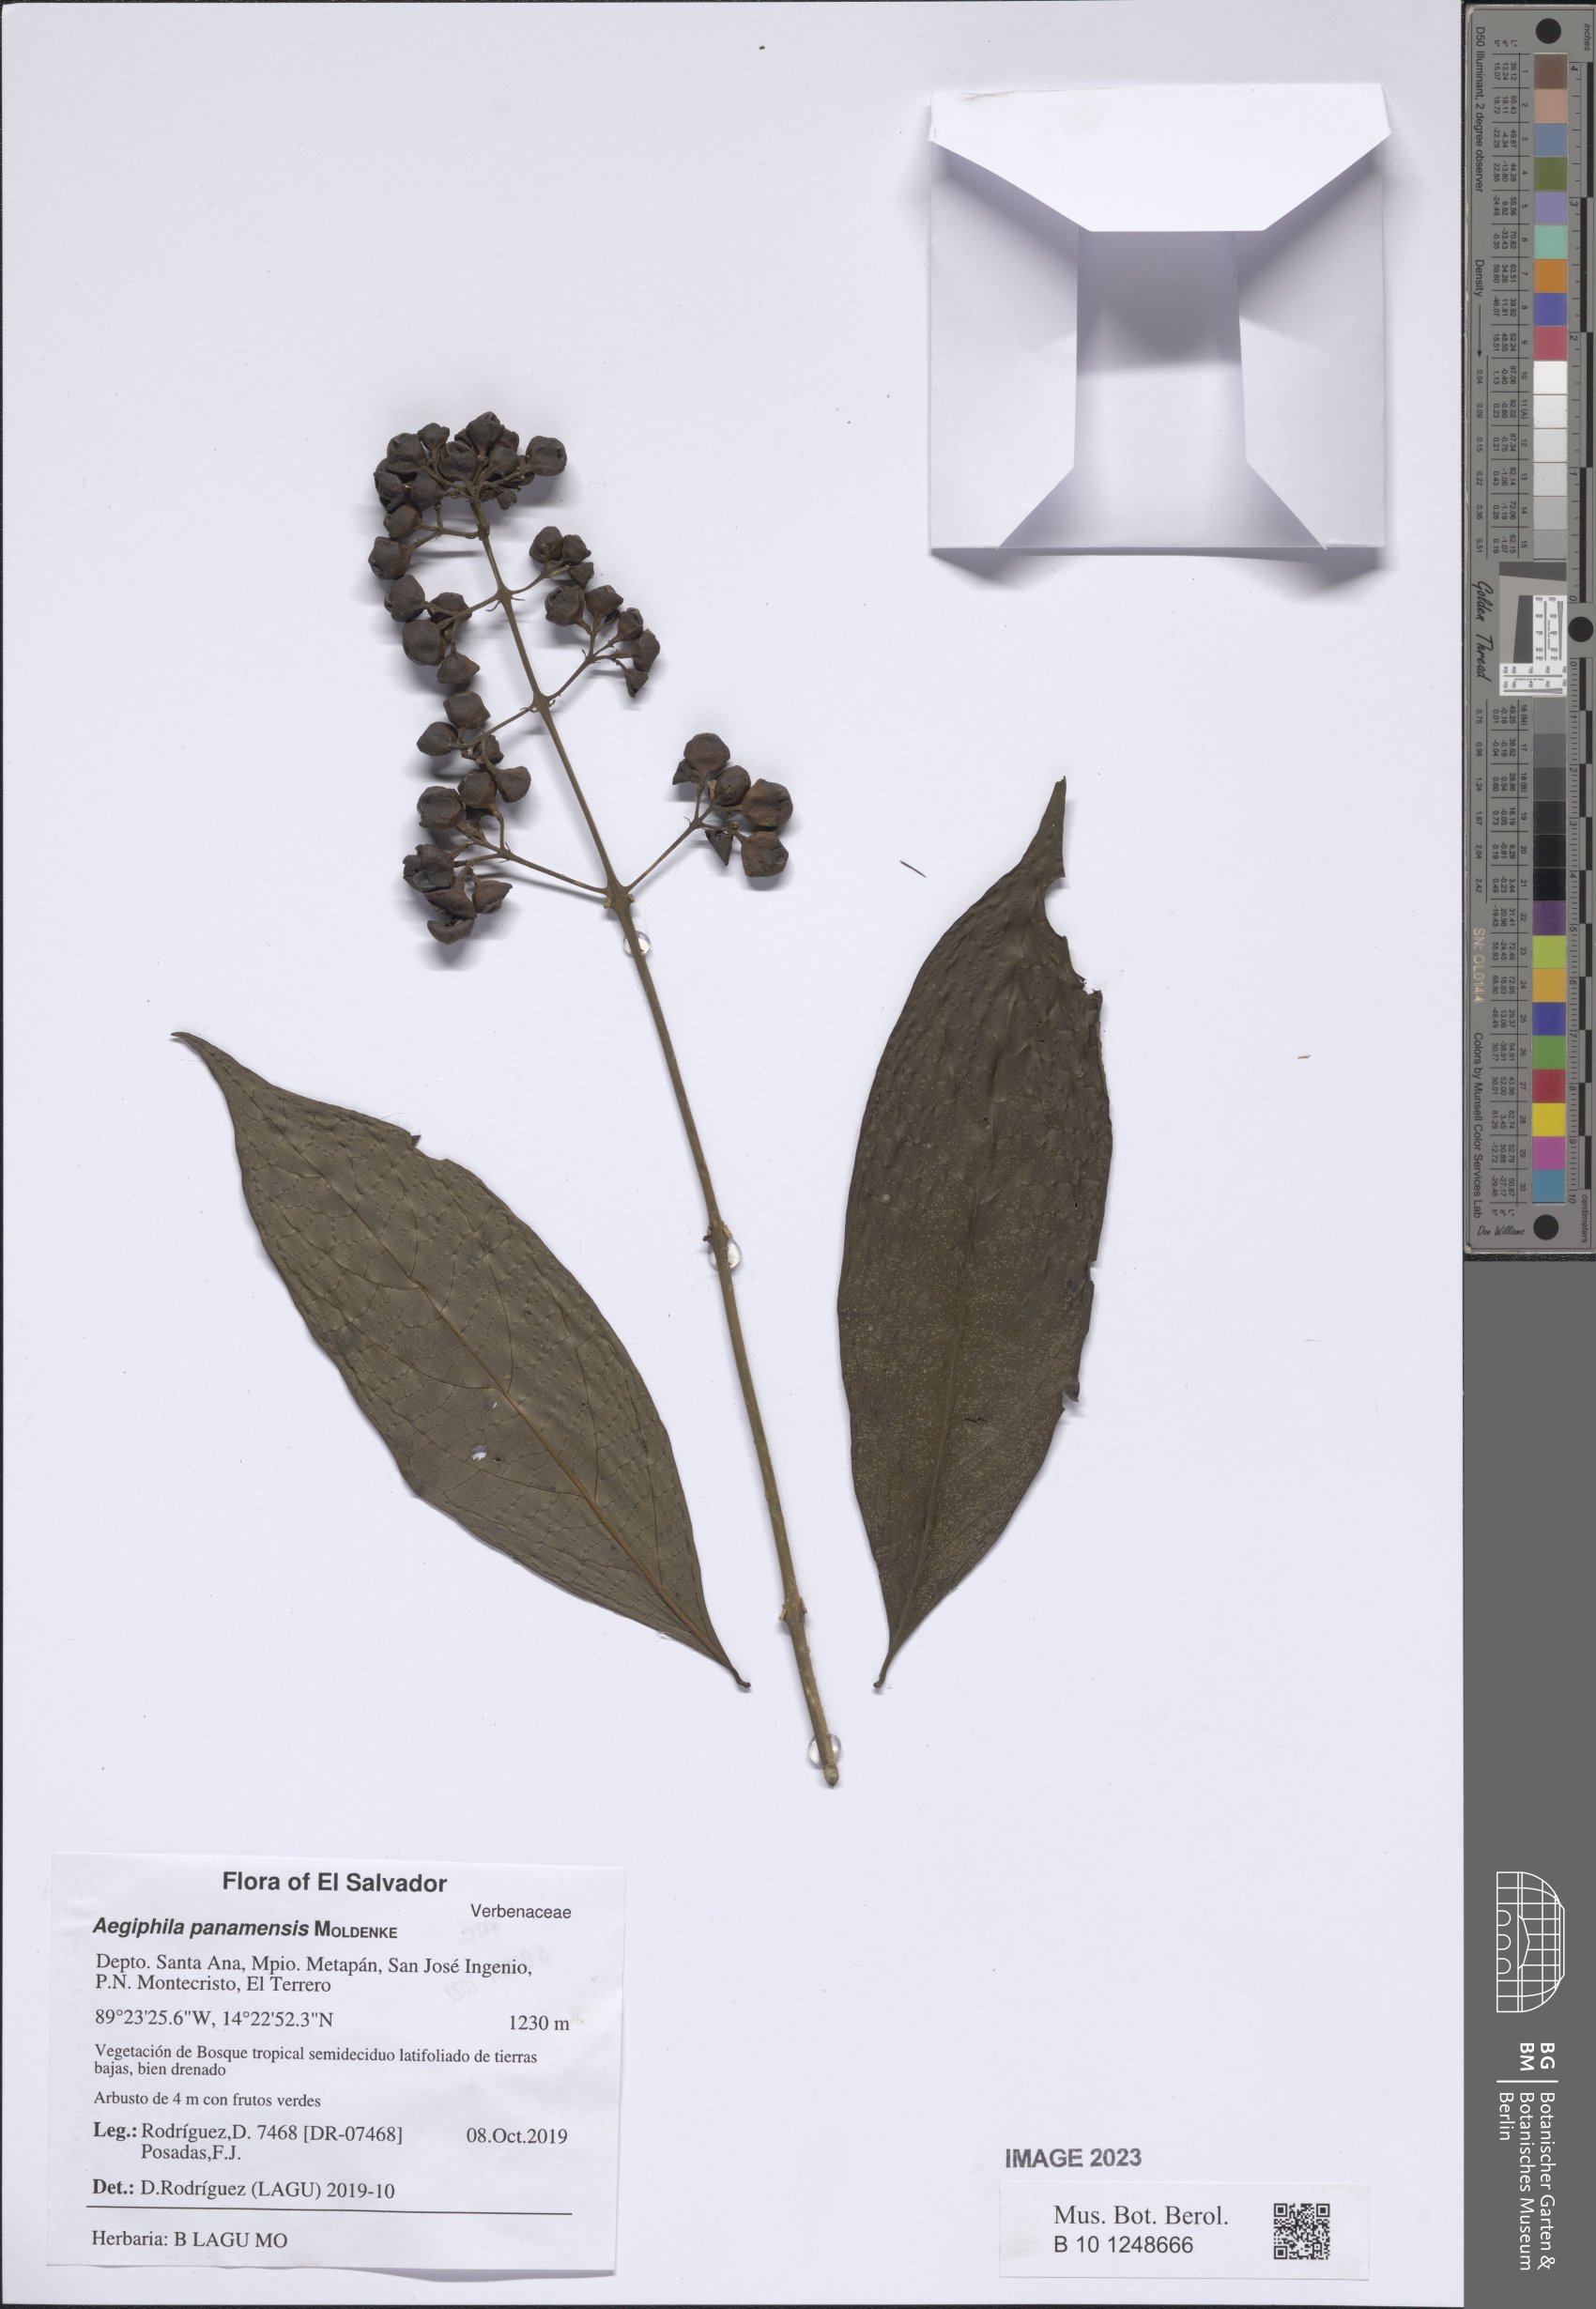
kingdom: Plantae
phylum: Tracheophyta
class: Magnoliopsida
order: Lamiales
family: Lamiaceae
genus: Aegiphila
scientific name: Aegiphila panamensis
